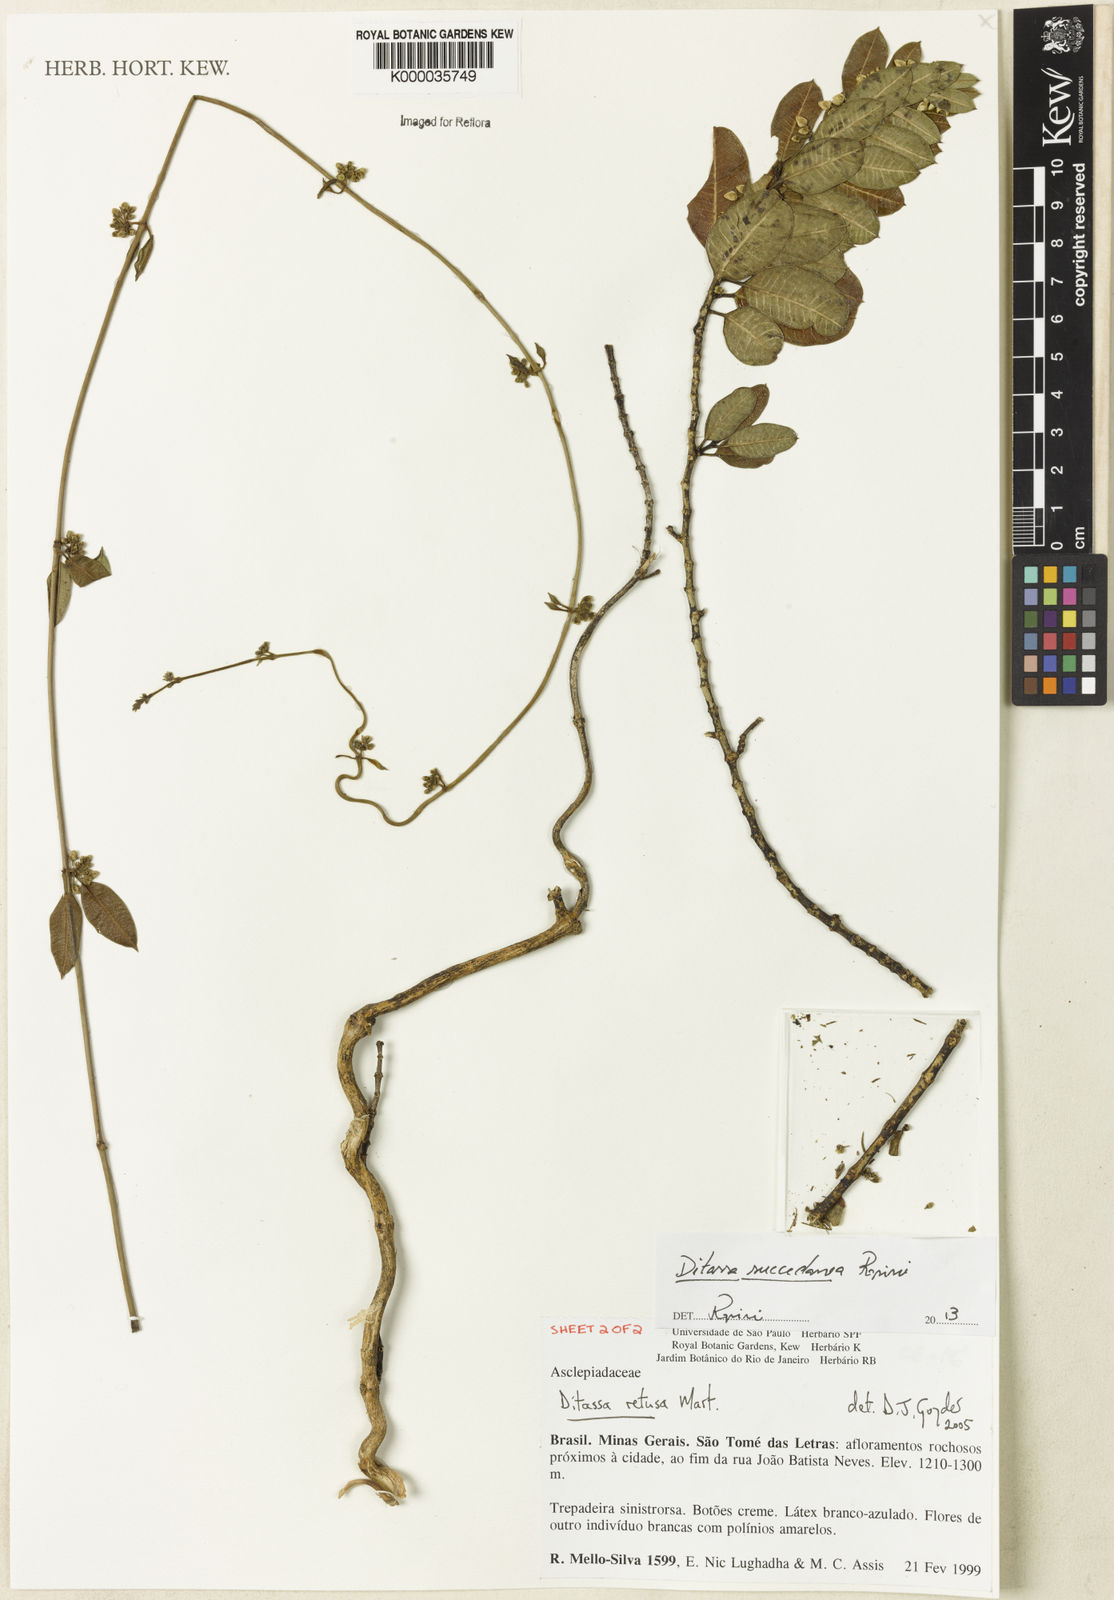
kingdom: Plantae
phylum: Tracheophyta
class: Magnoliopsida
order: Gentianales
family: Apocynaceae
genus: Ditassa
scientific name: Ditassa retusa
